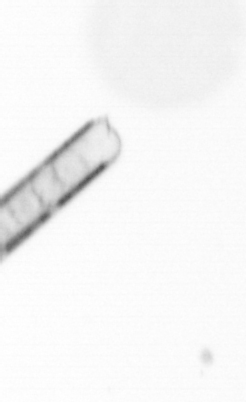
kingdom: Chromista
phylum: Ochrophyta
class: Bacillariophyceae
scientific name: Bacillariophyceae
